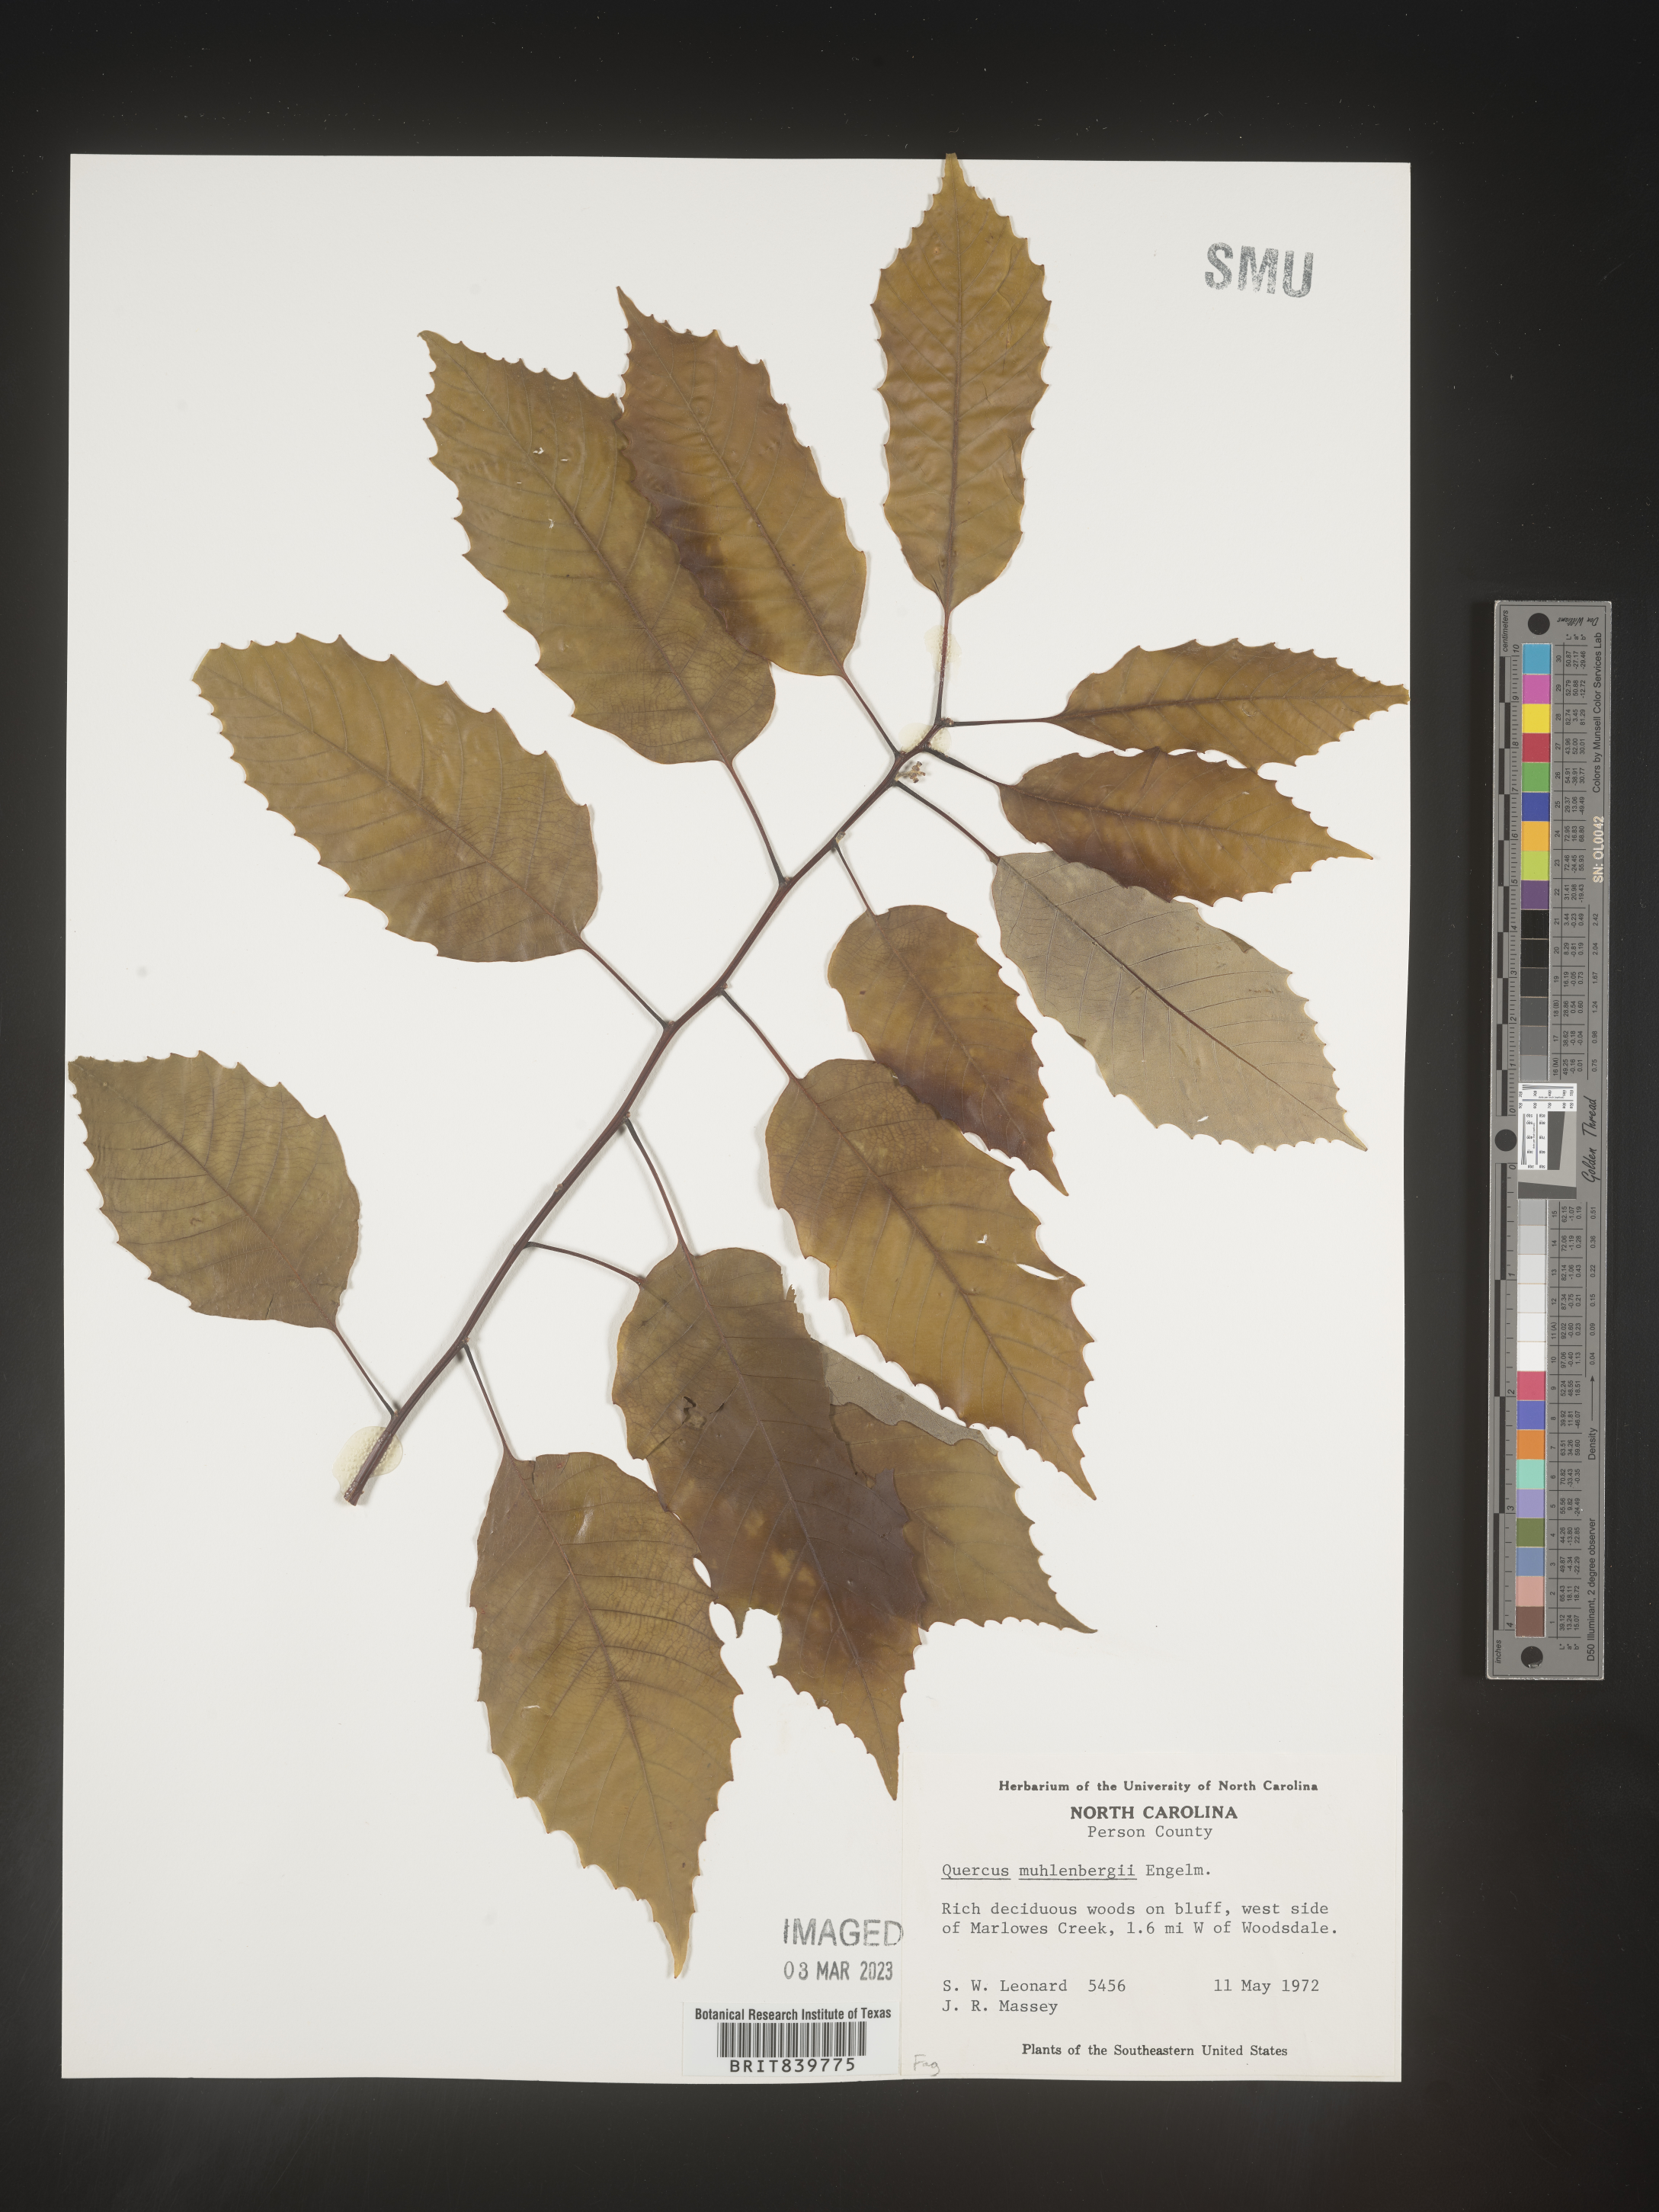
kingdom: Plantae
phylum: Tracheophyta
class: Magnoliopsida
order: Fagales
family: Fagaceae
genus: Quercus
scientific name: Quercus muehlenbergii
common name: Chinkapin oak
